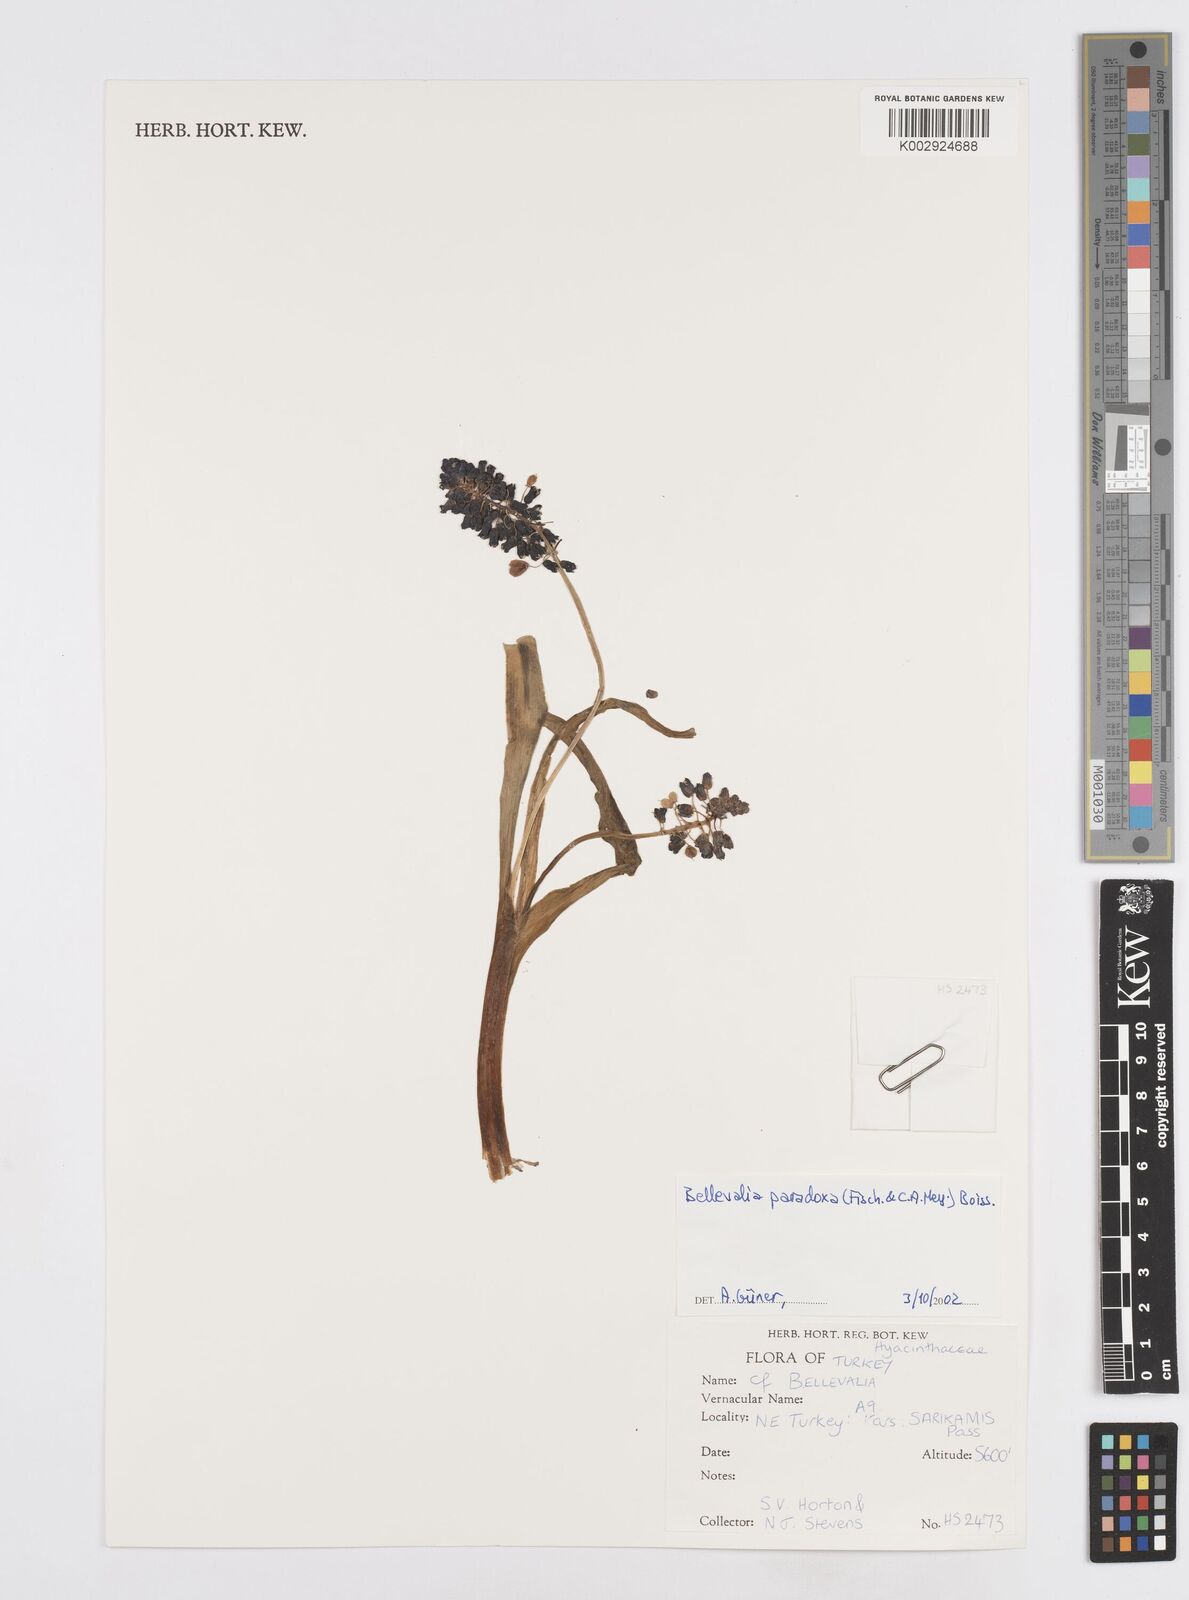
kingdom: Plantae
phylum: Tracheophyta
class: Liliopsida
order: Asparagales
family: Asparagaceae
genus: Bellevalia
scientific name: Bellevalia paradoxa
